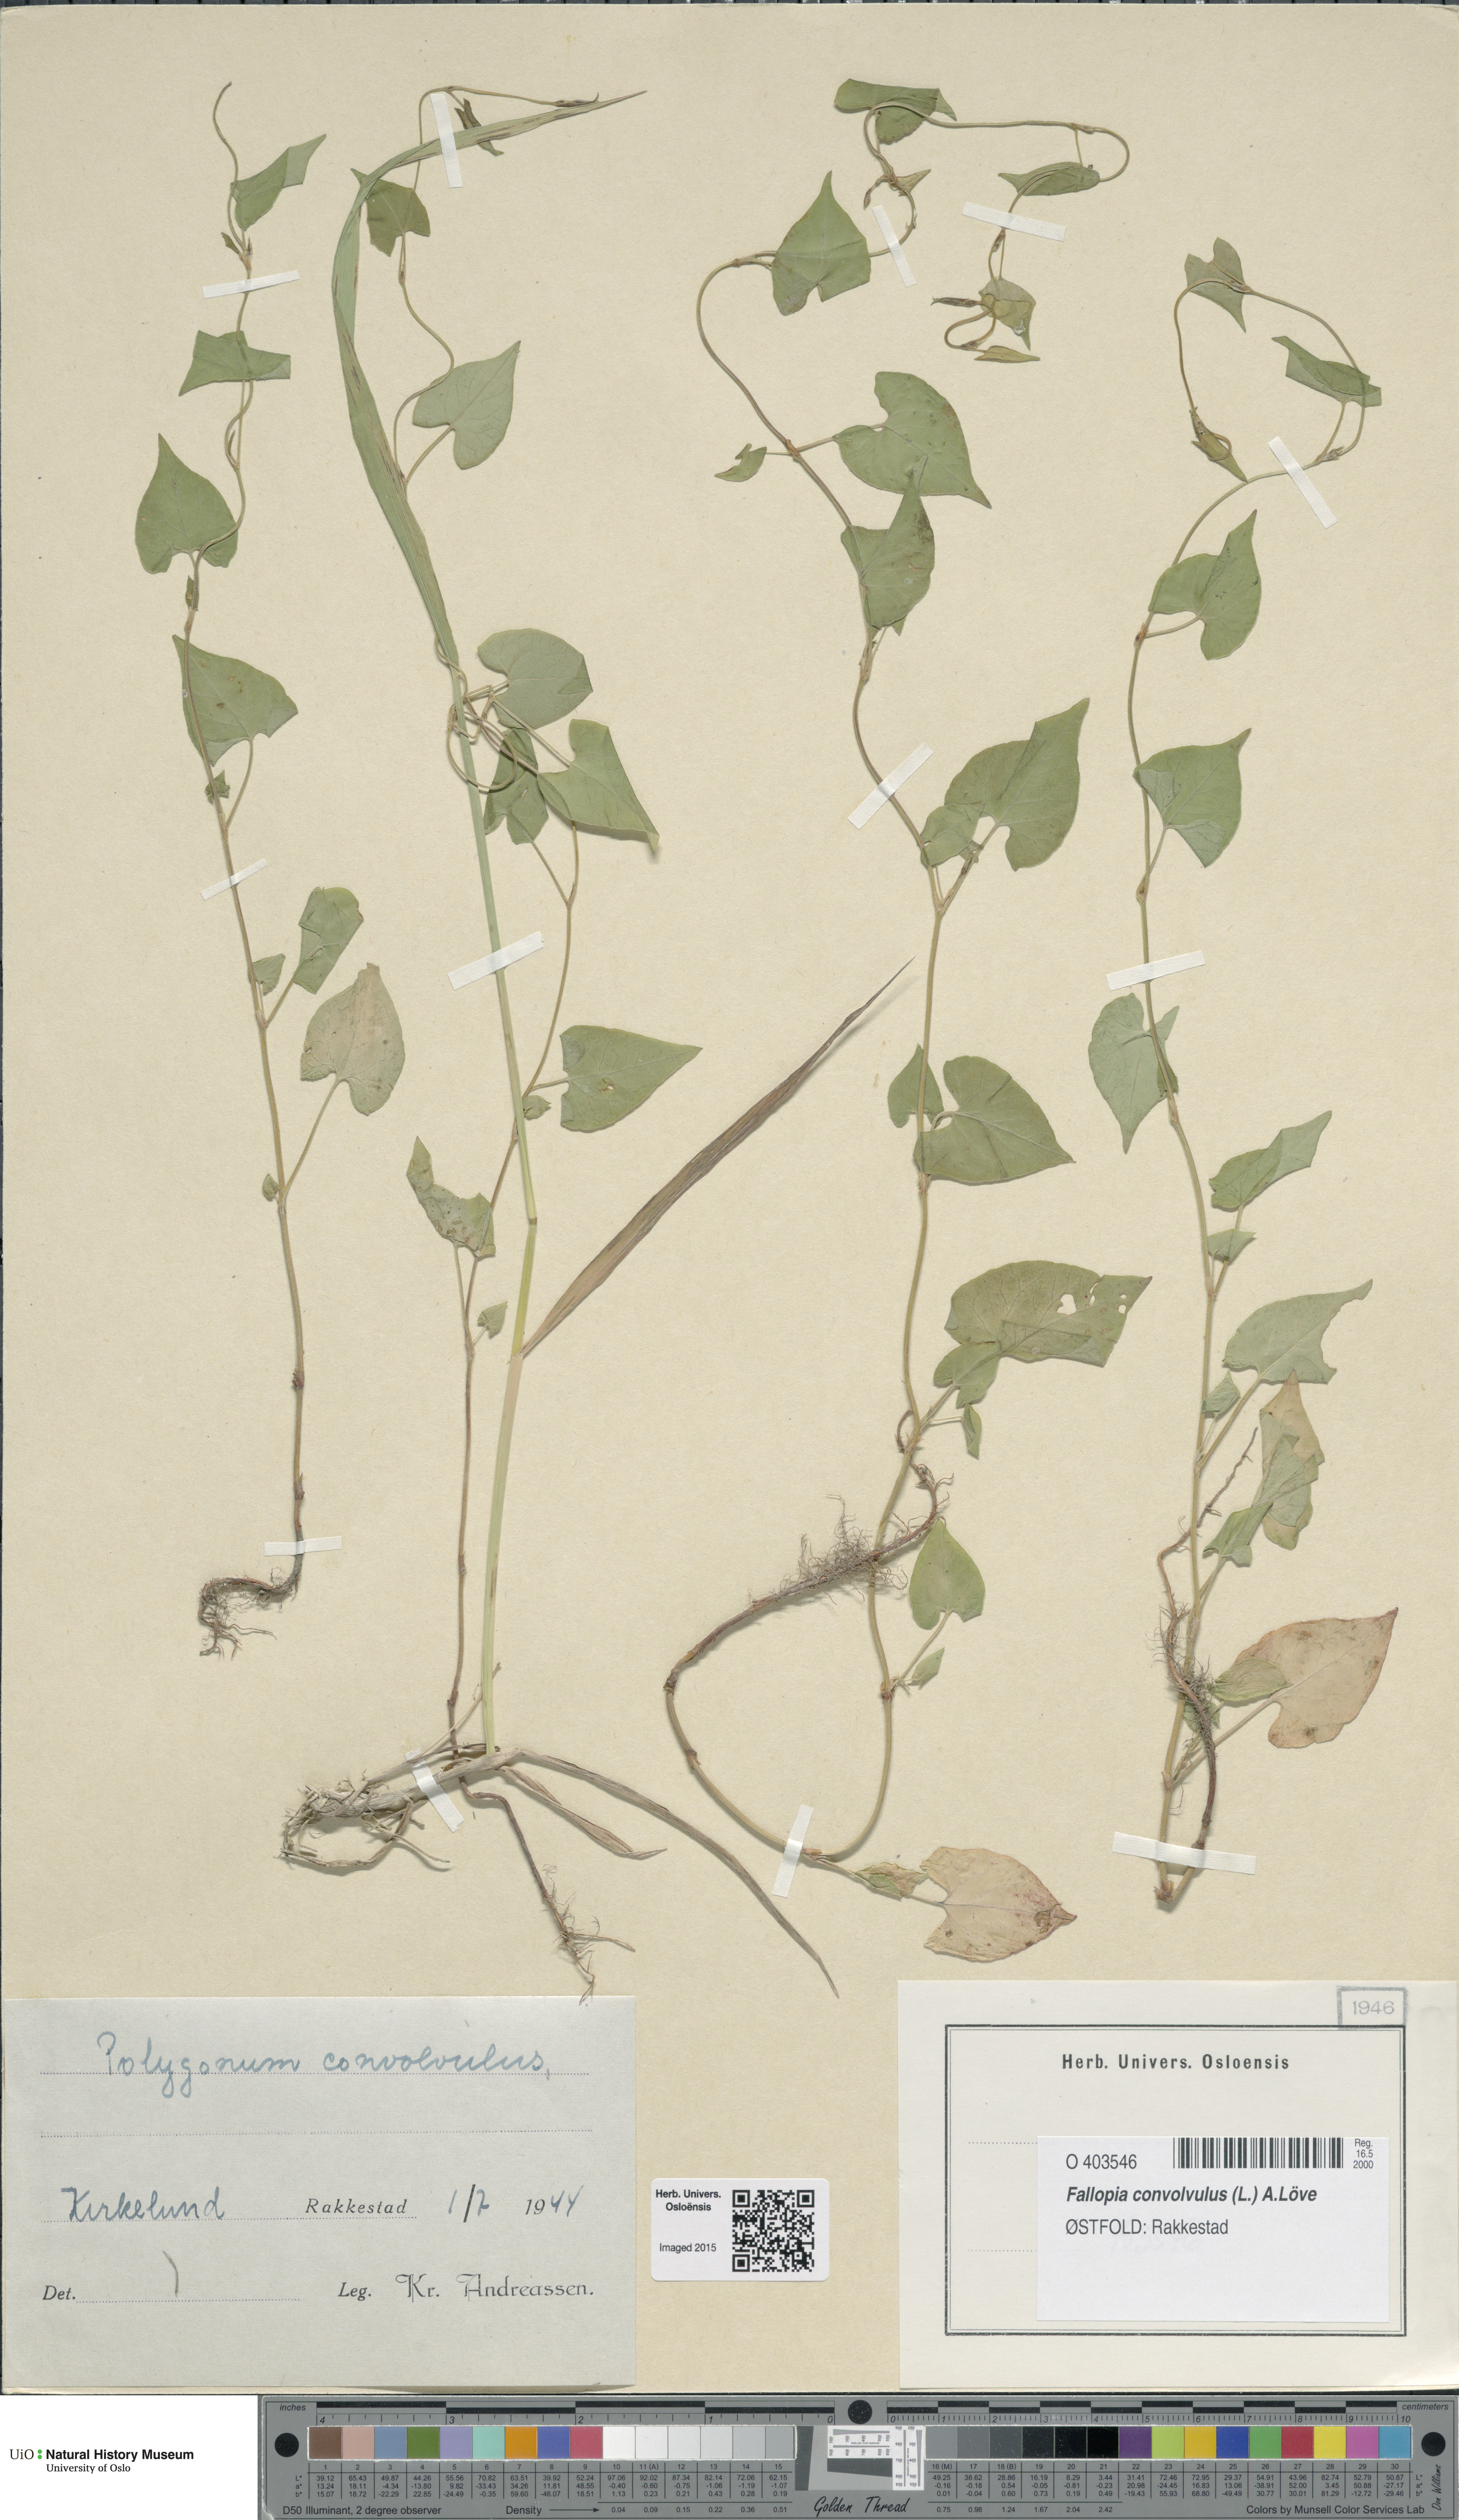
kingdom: Plantae
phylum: Tracheophyta
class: Magnoliopsida
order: Caryophyllales
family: Polygonaceae
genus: Fallopia
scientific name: Fallopia convolvulus
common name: Black bindweed
